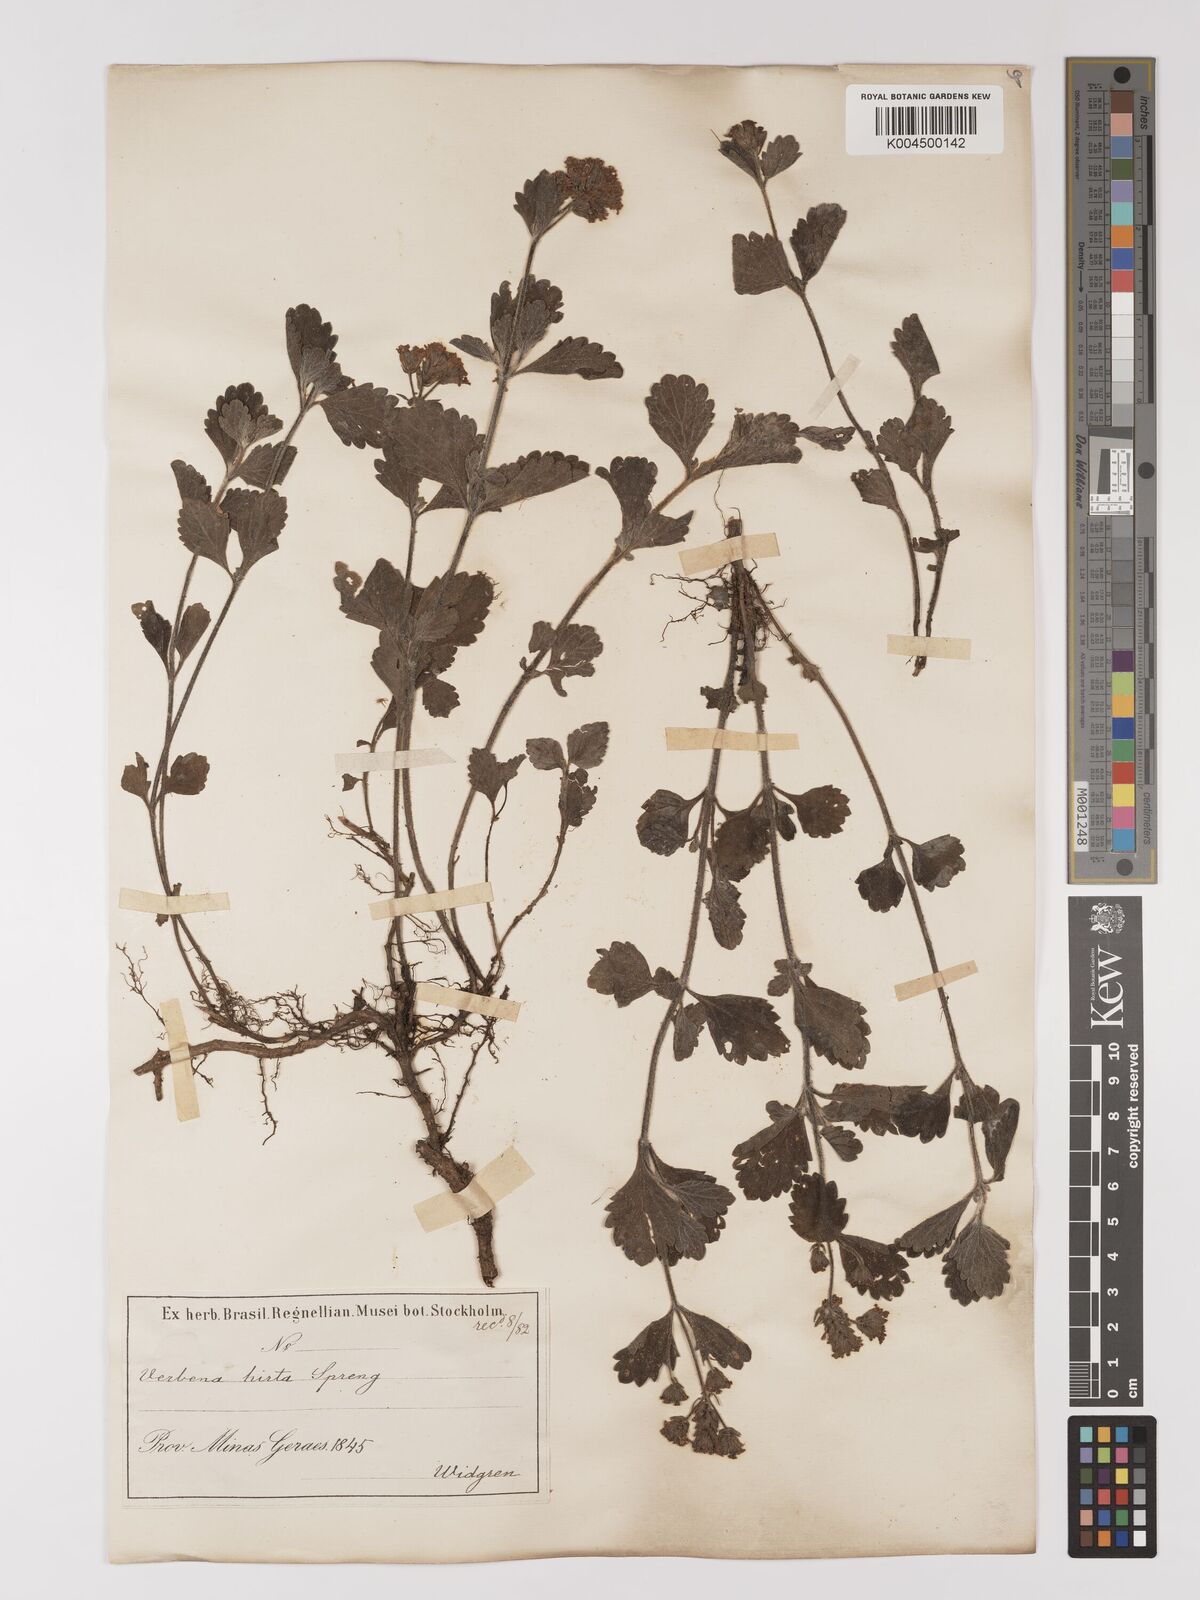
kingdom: Plantae
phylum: Tracheophyta
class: Magnoliopsida
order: Lamiales
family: Verbenaceae
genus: Verbena
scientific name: Verbena hirta
